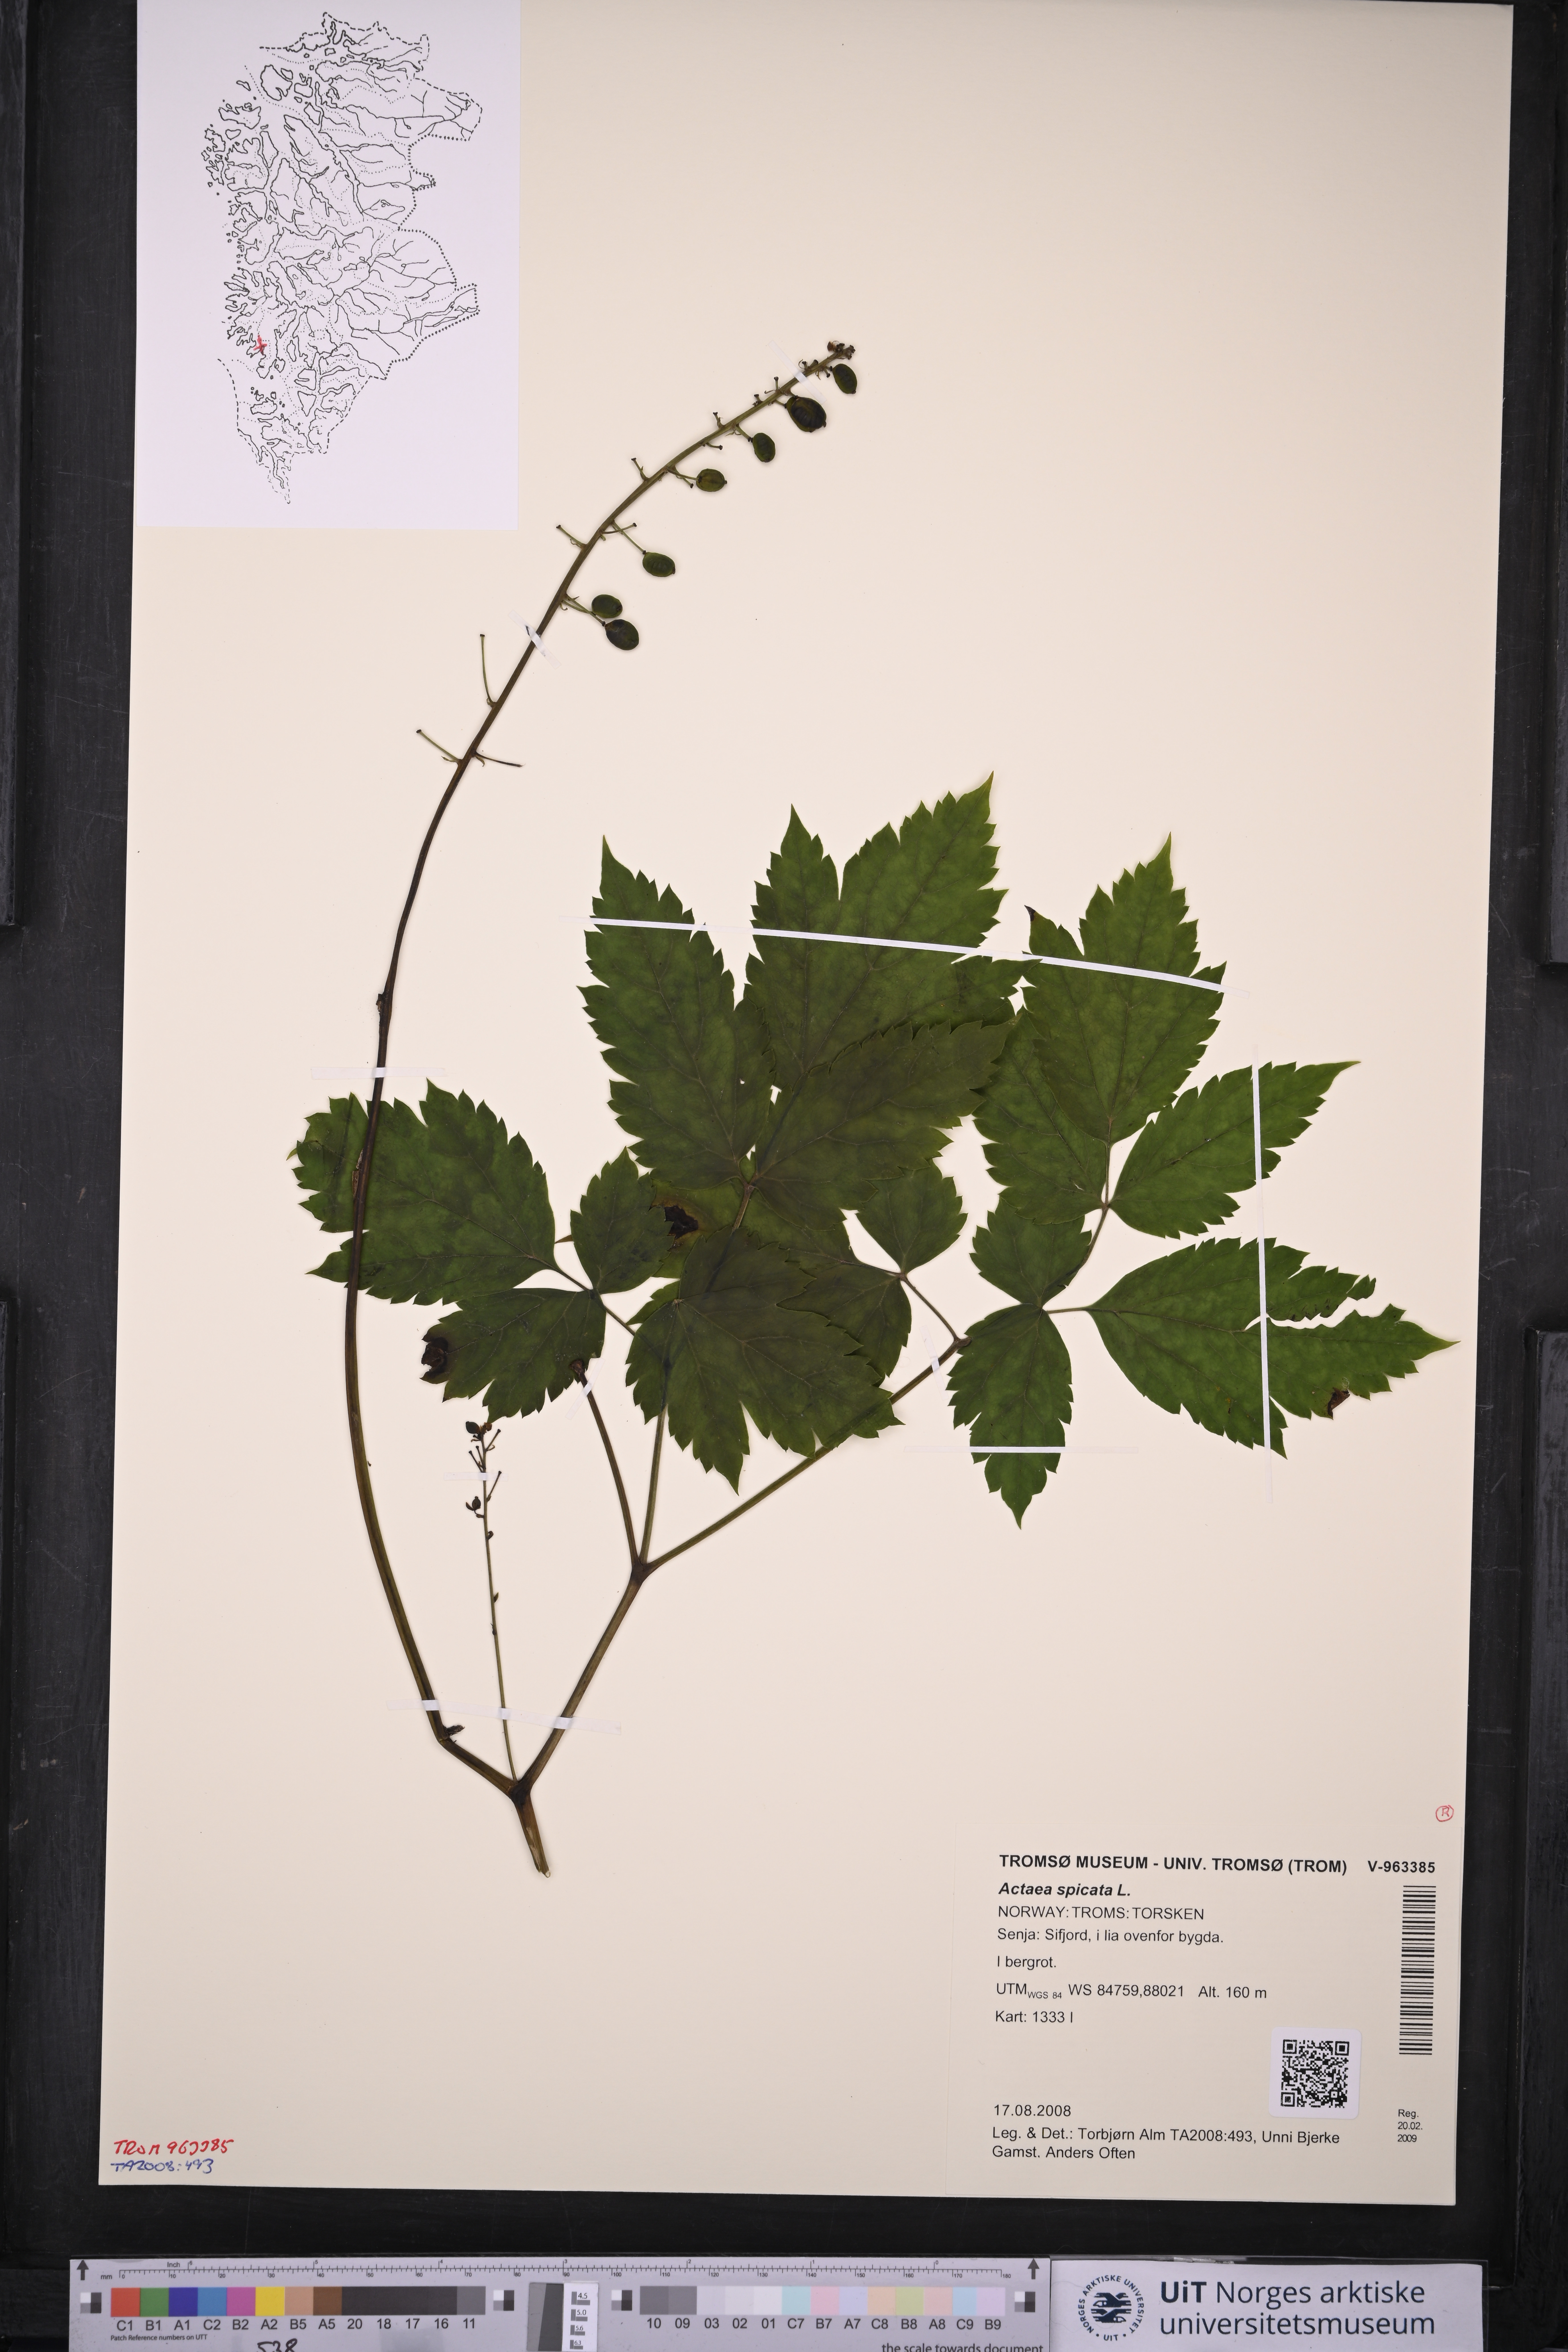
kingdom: Plantae
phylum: Tracheophyta
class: Magnoliopsida
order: Ranunculales
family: Ranunculaceae
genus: Actaea
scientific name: Actaea spicata
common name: Baneberry
